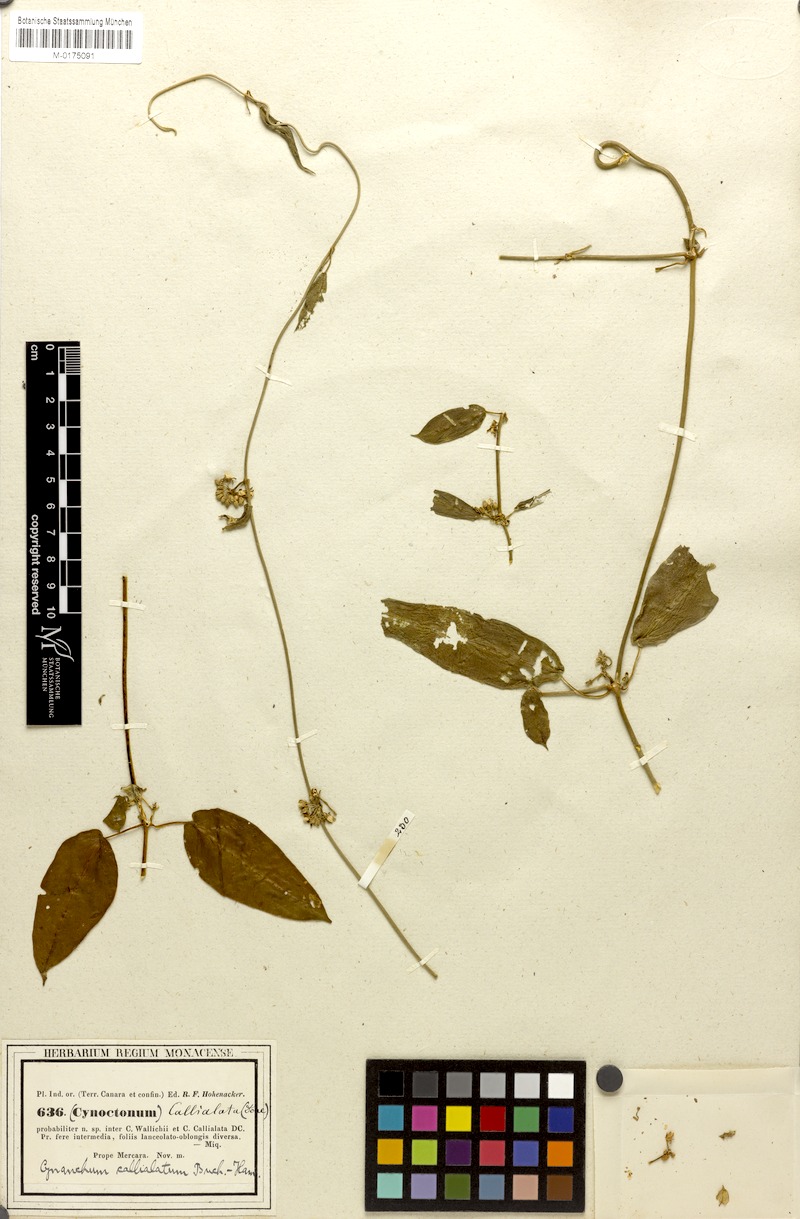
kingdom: Plantae
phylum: Tracheophyta
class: Magnoliopsida
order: Gentianales
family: Apocynaceae
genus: Cynanchum
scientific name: Cynanchum tunicatum
